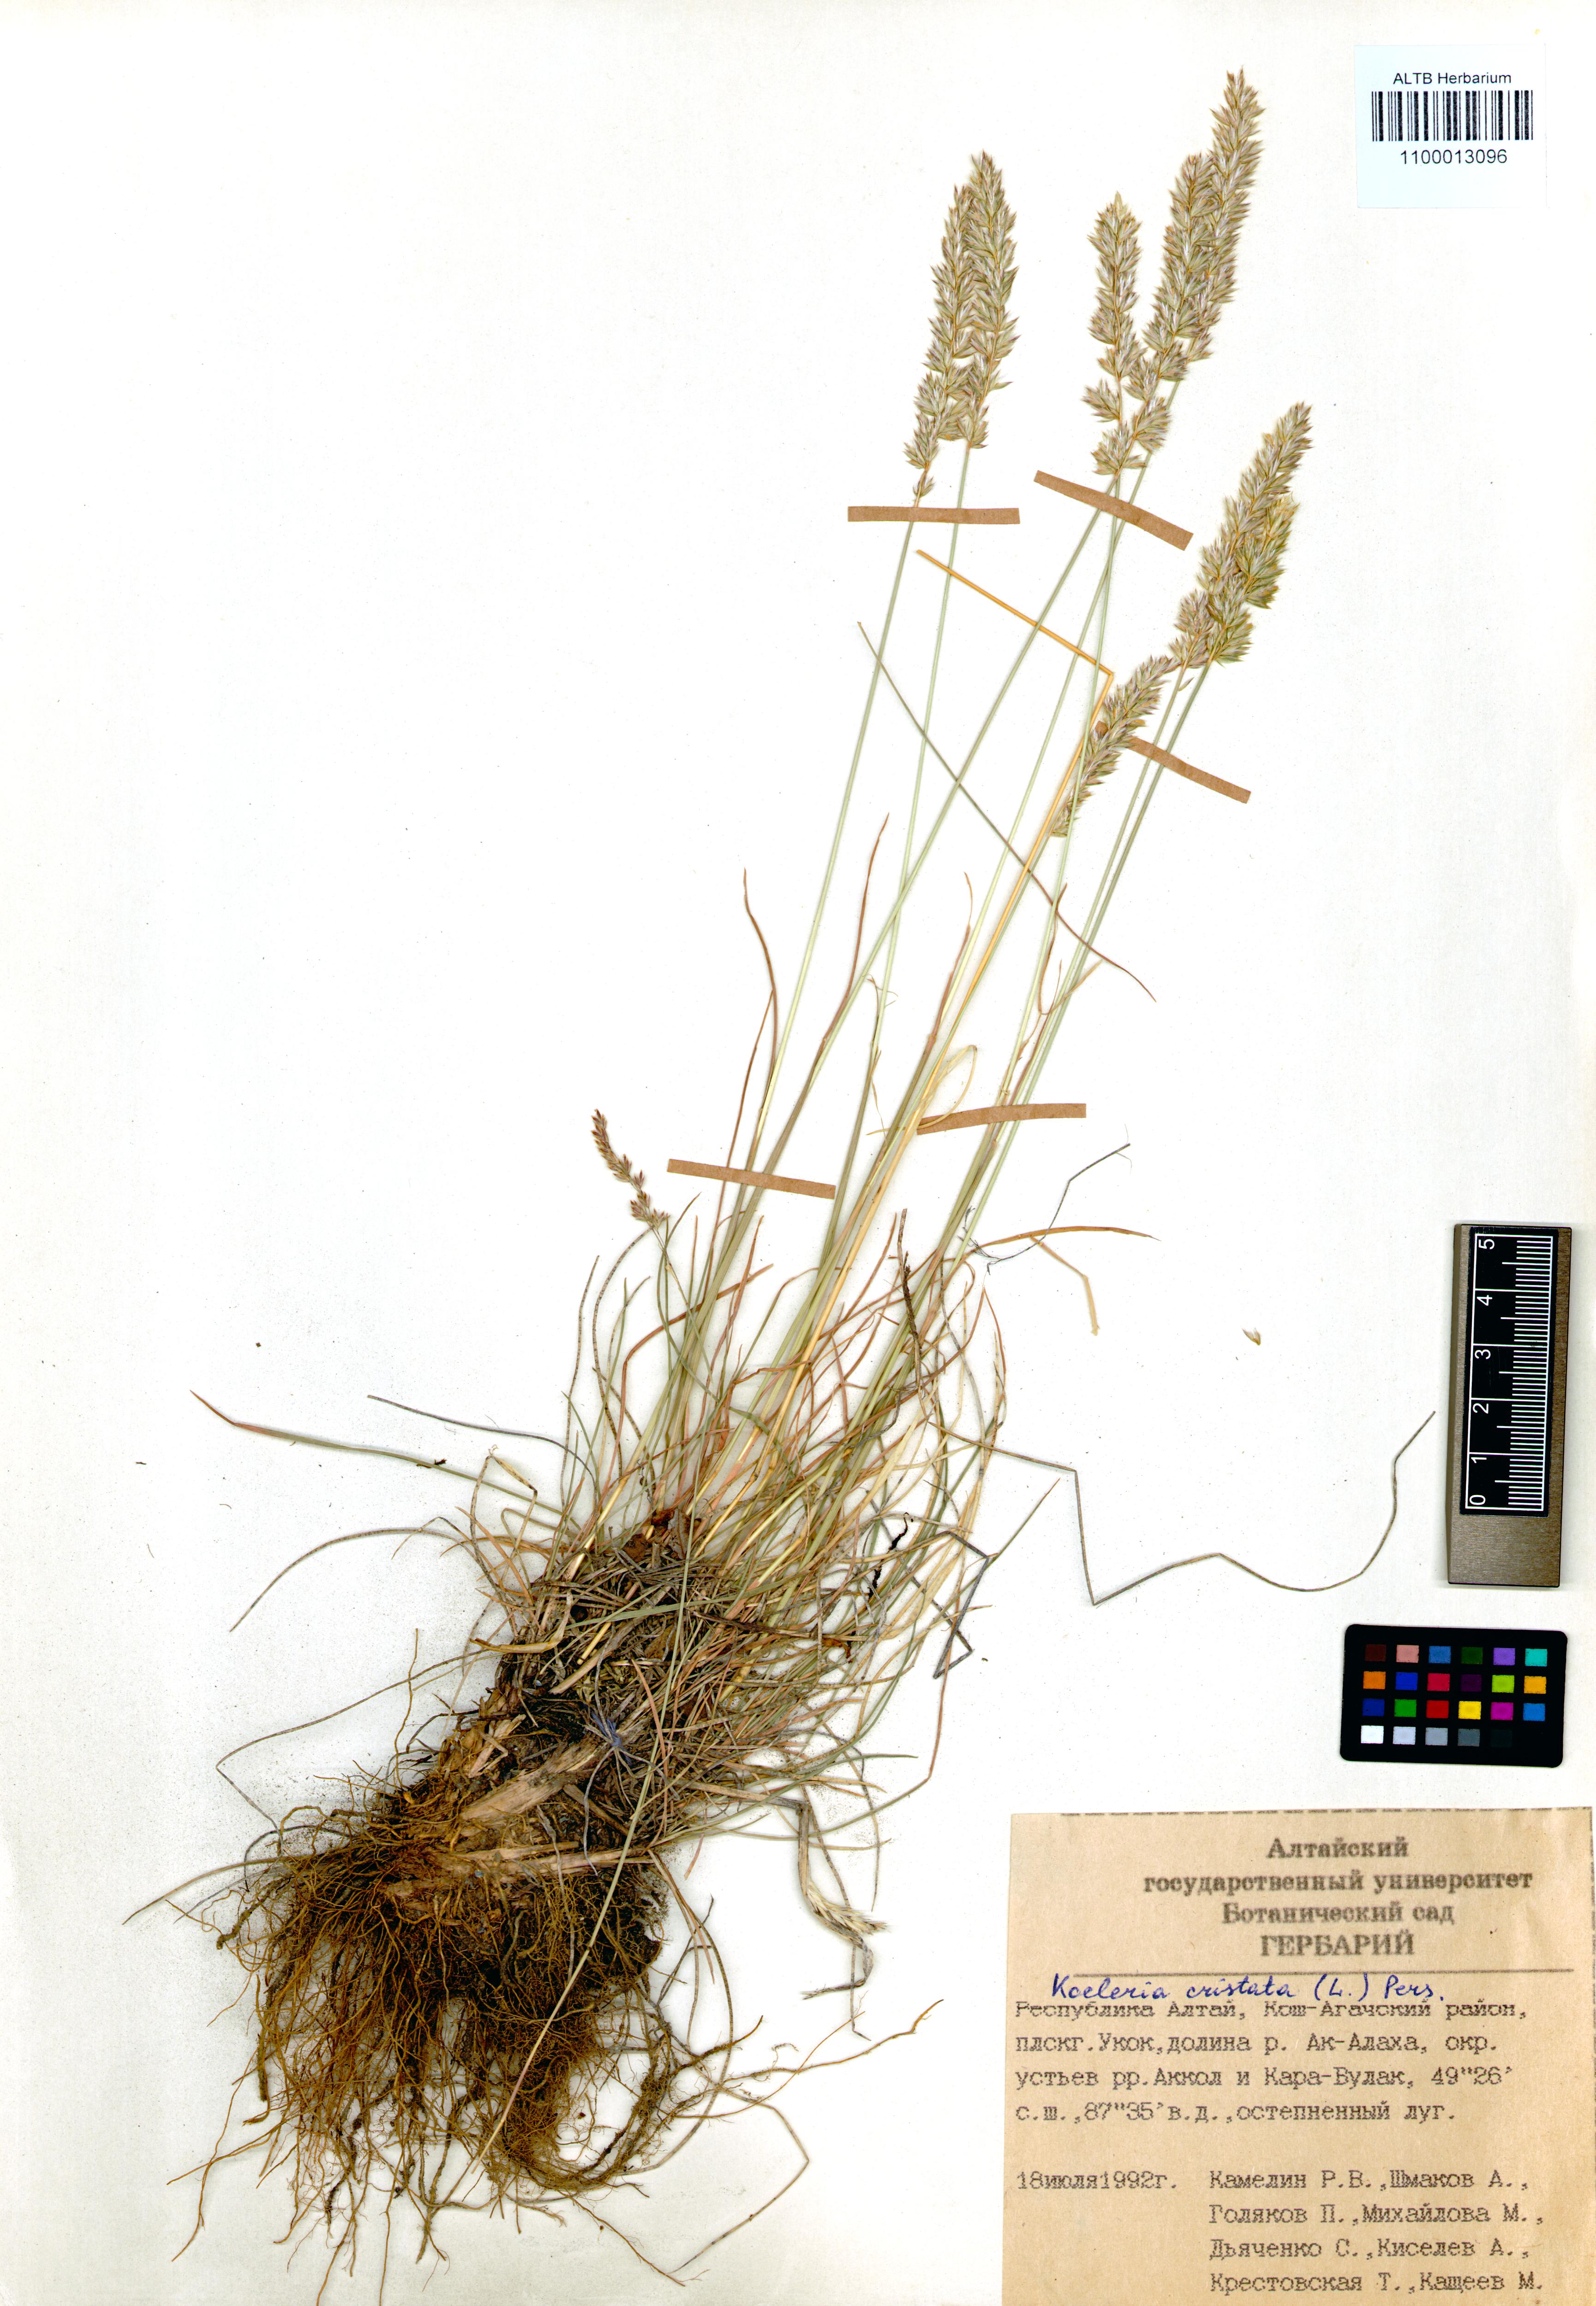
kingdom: Plantae
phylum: Tracheophyta
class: Liliopsida
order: Poales
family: Poaceae
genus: Koeleria
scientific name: Koeleria pyramidata
